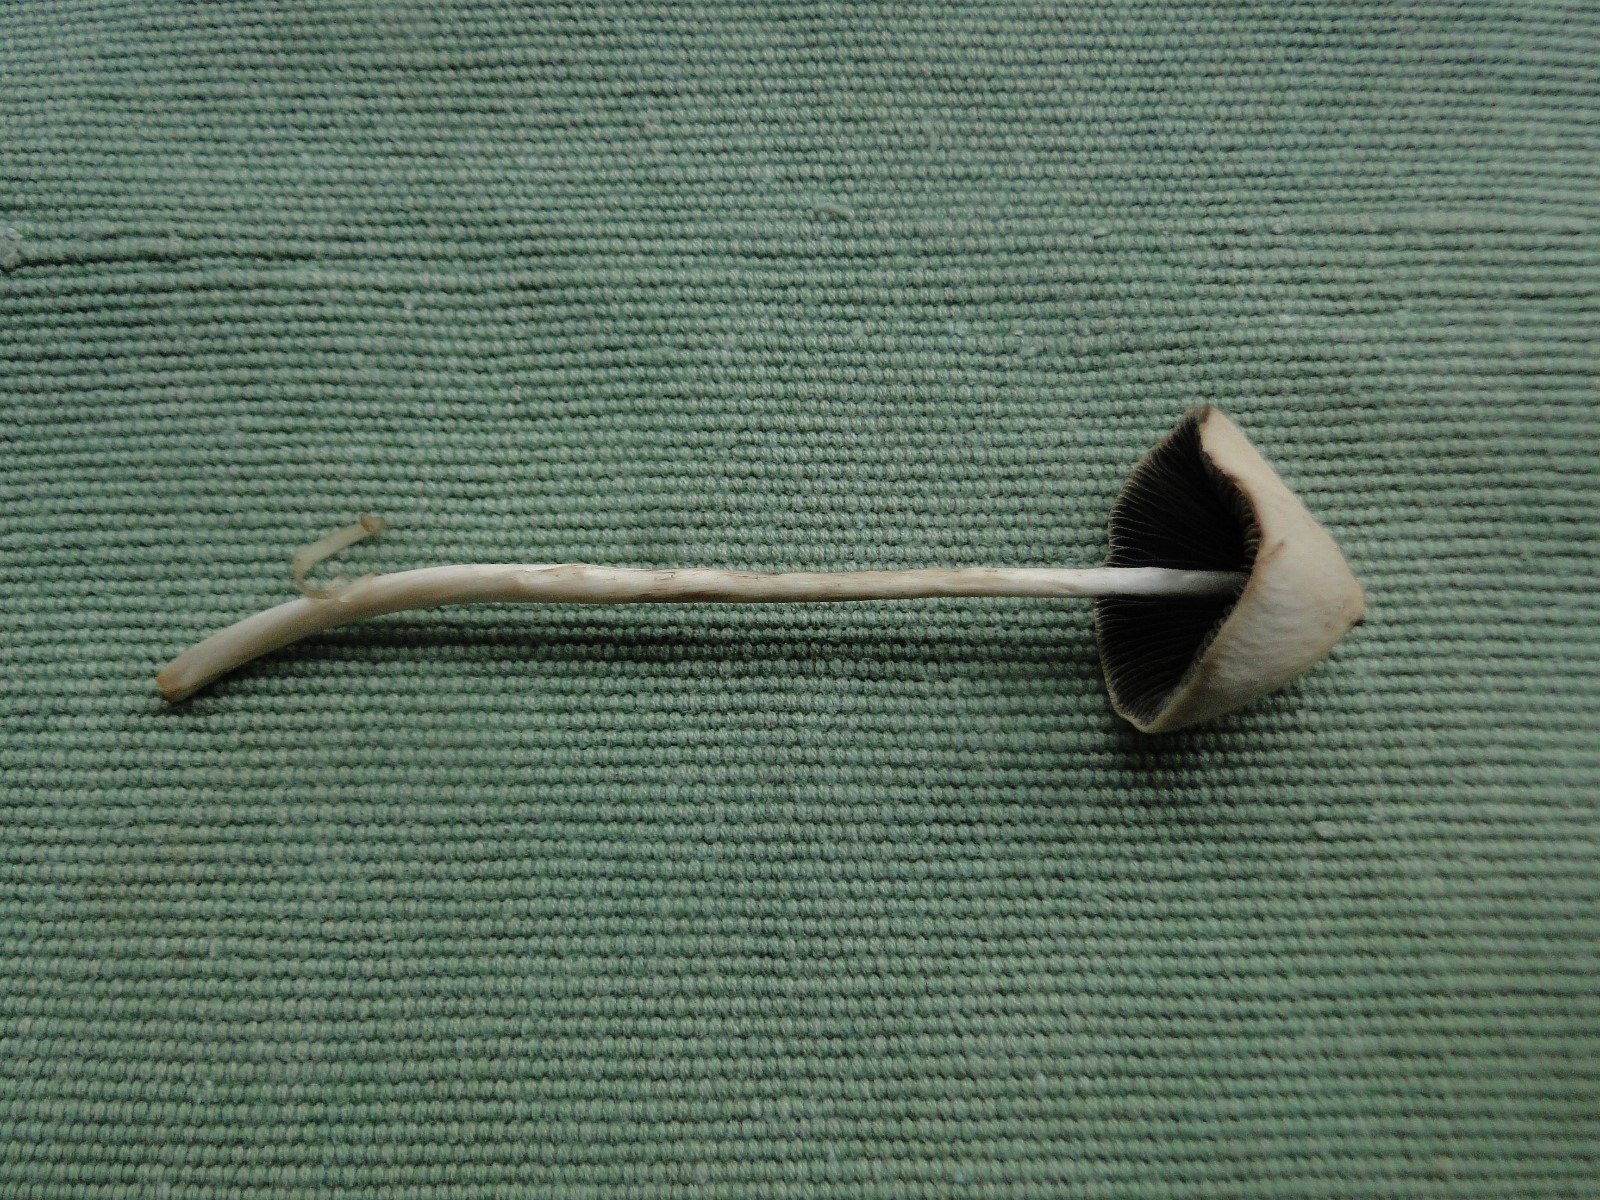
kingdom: Fungi
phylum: Basidiomycota
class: Agaricomycetes
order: Agaricales
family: Psathyrellaceae
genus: Parasola
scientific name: Parasola conopilea
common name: kegle-hjulhat
